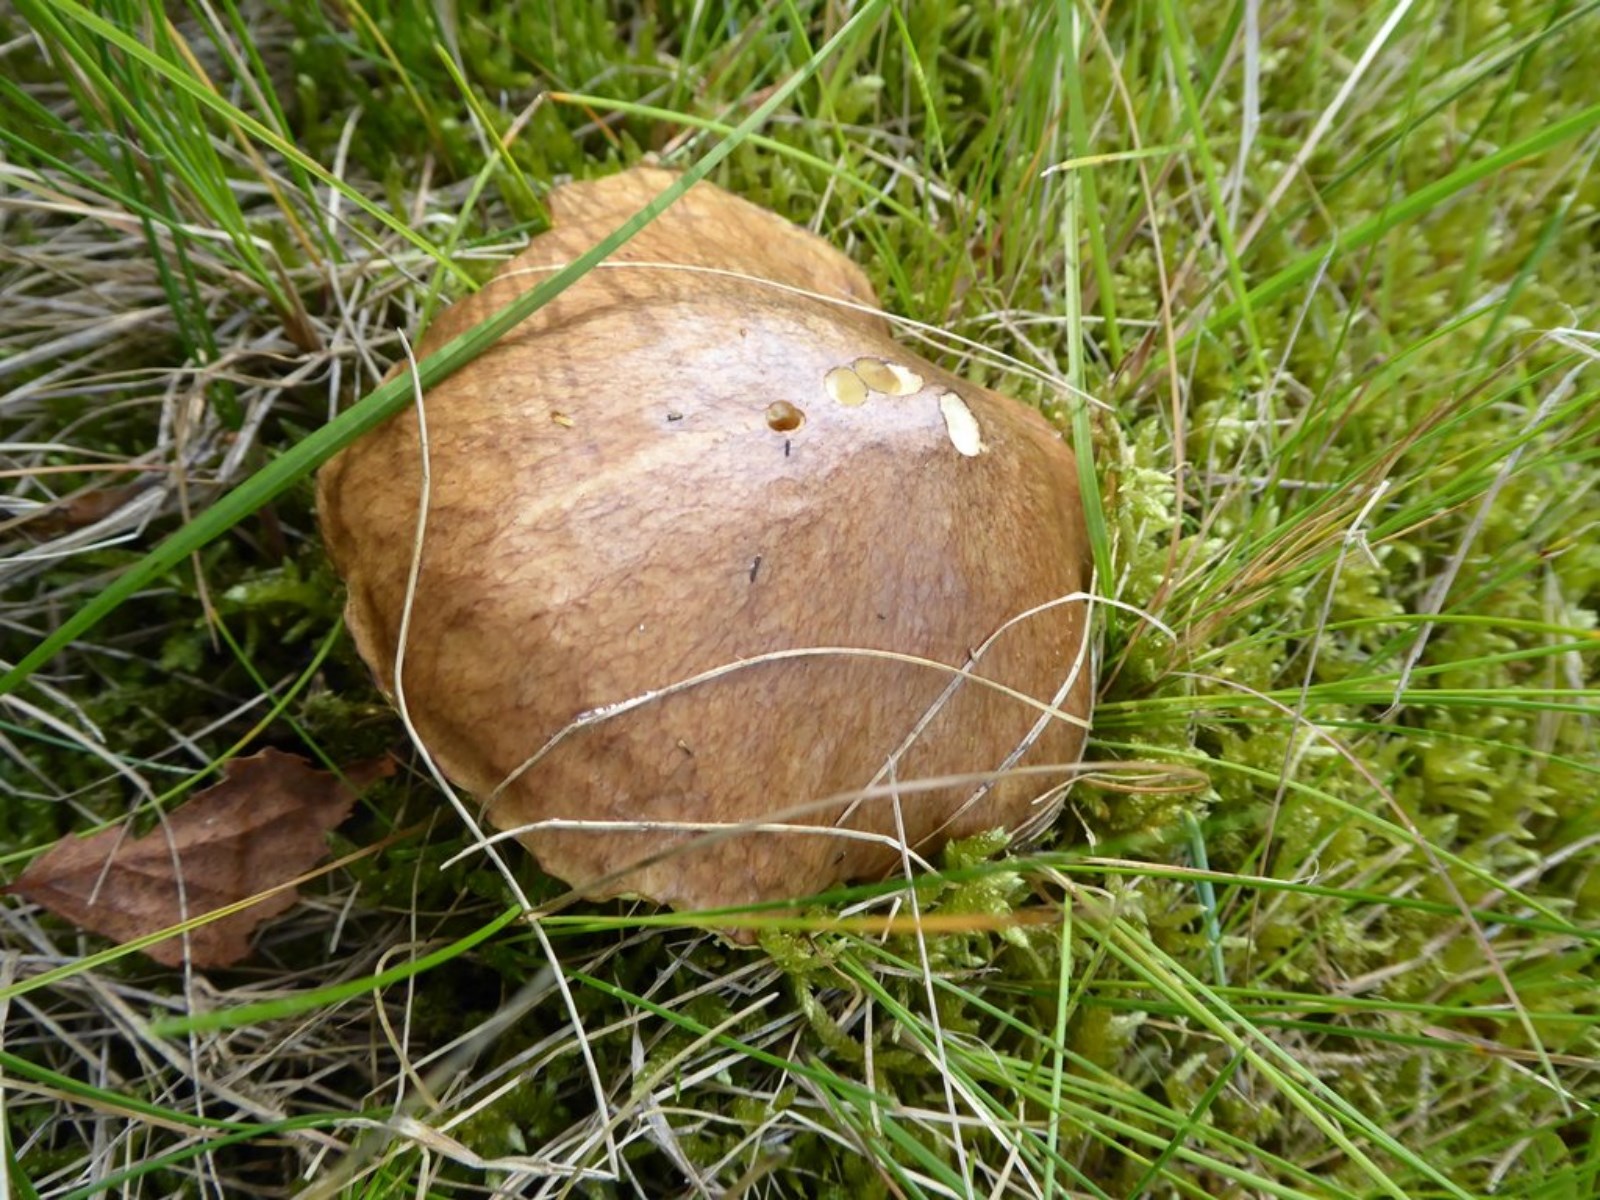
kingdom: Fungi
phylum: Basidiomycota
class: Agaricomycetes
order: Boletales
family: Suillaceae
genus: Suillus
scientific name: Suillus
